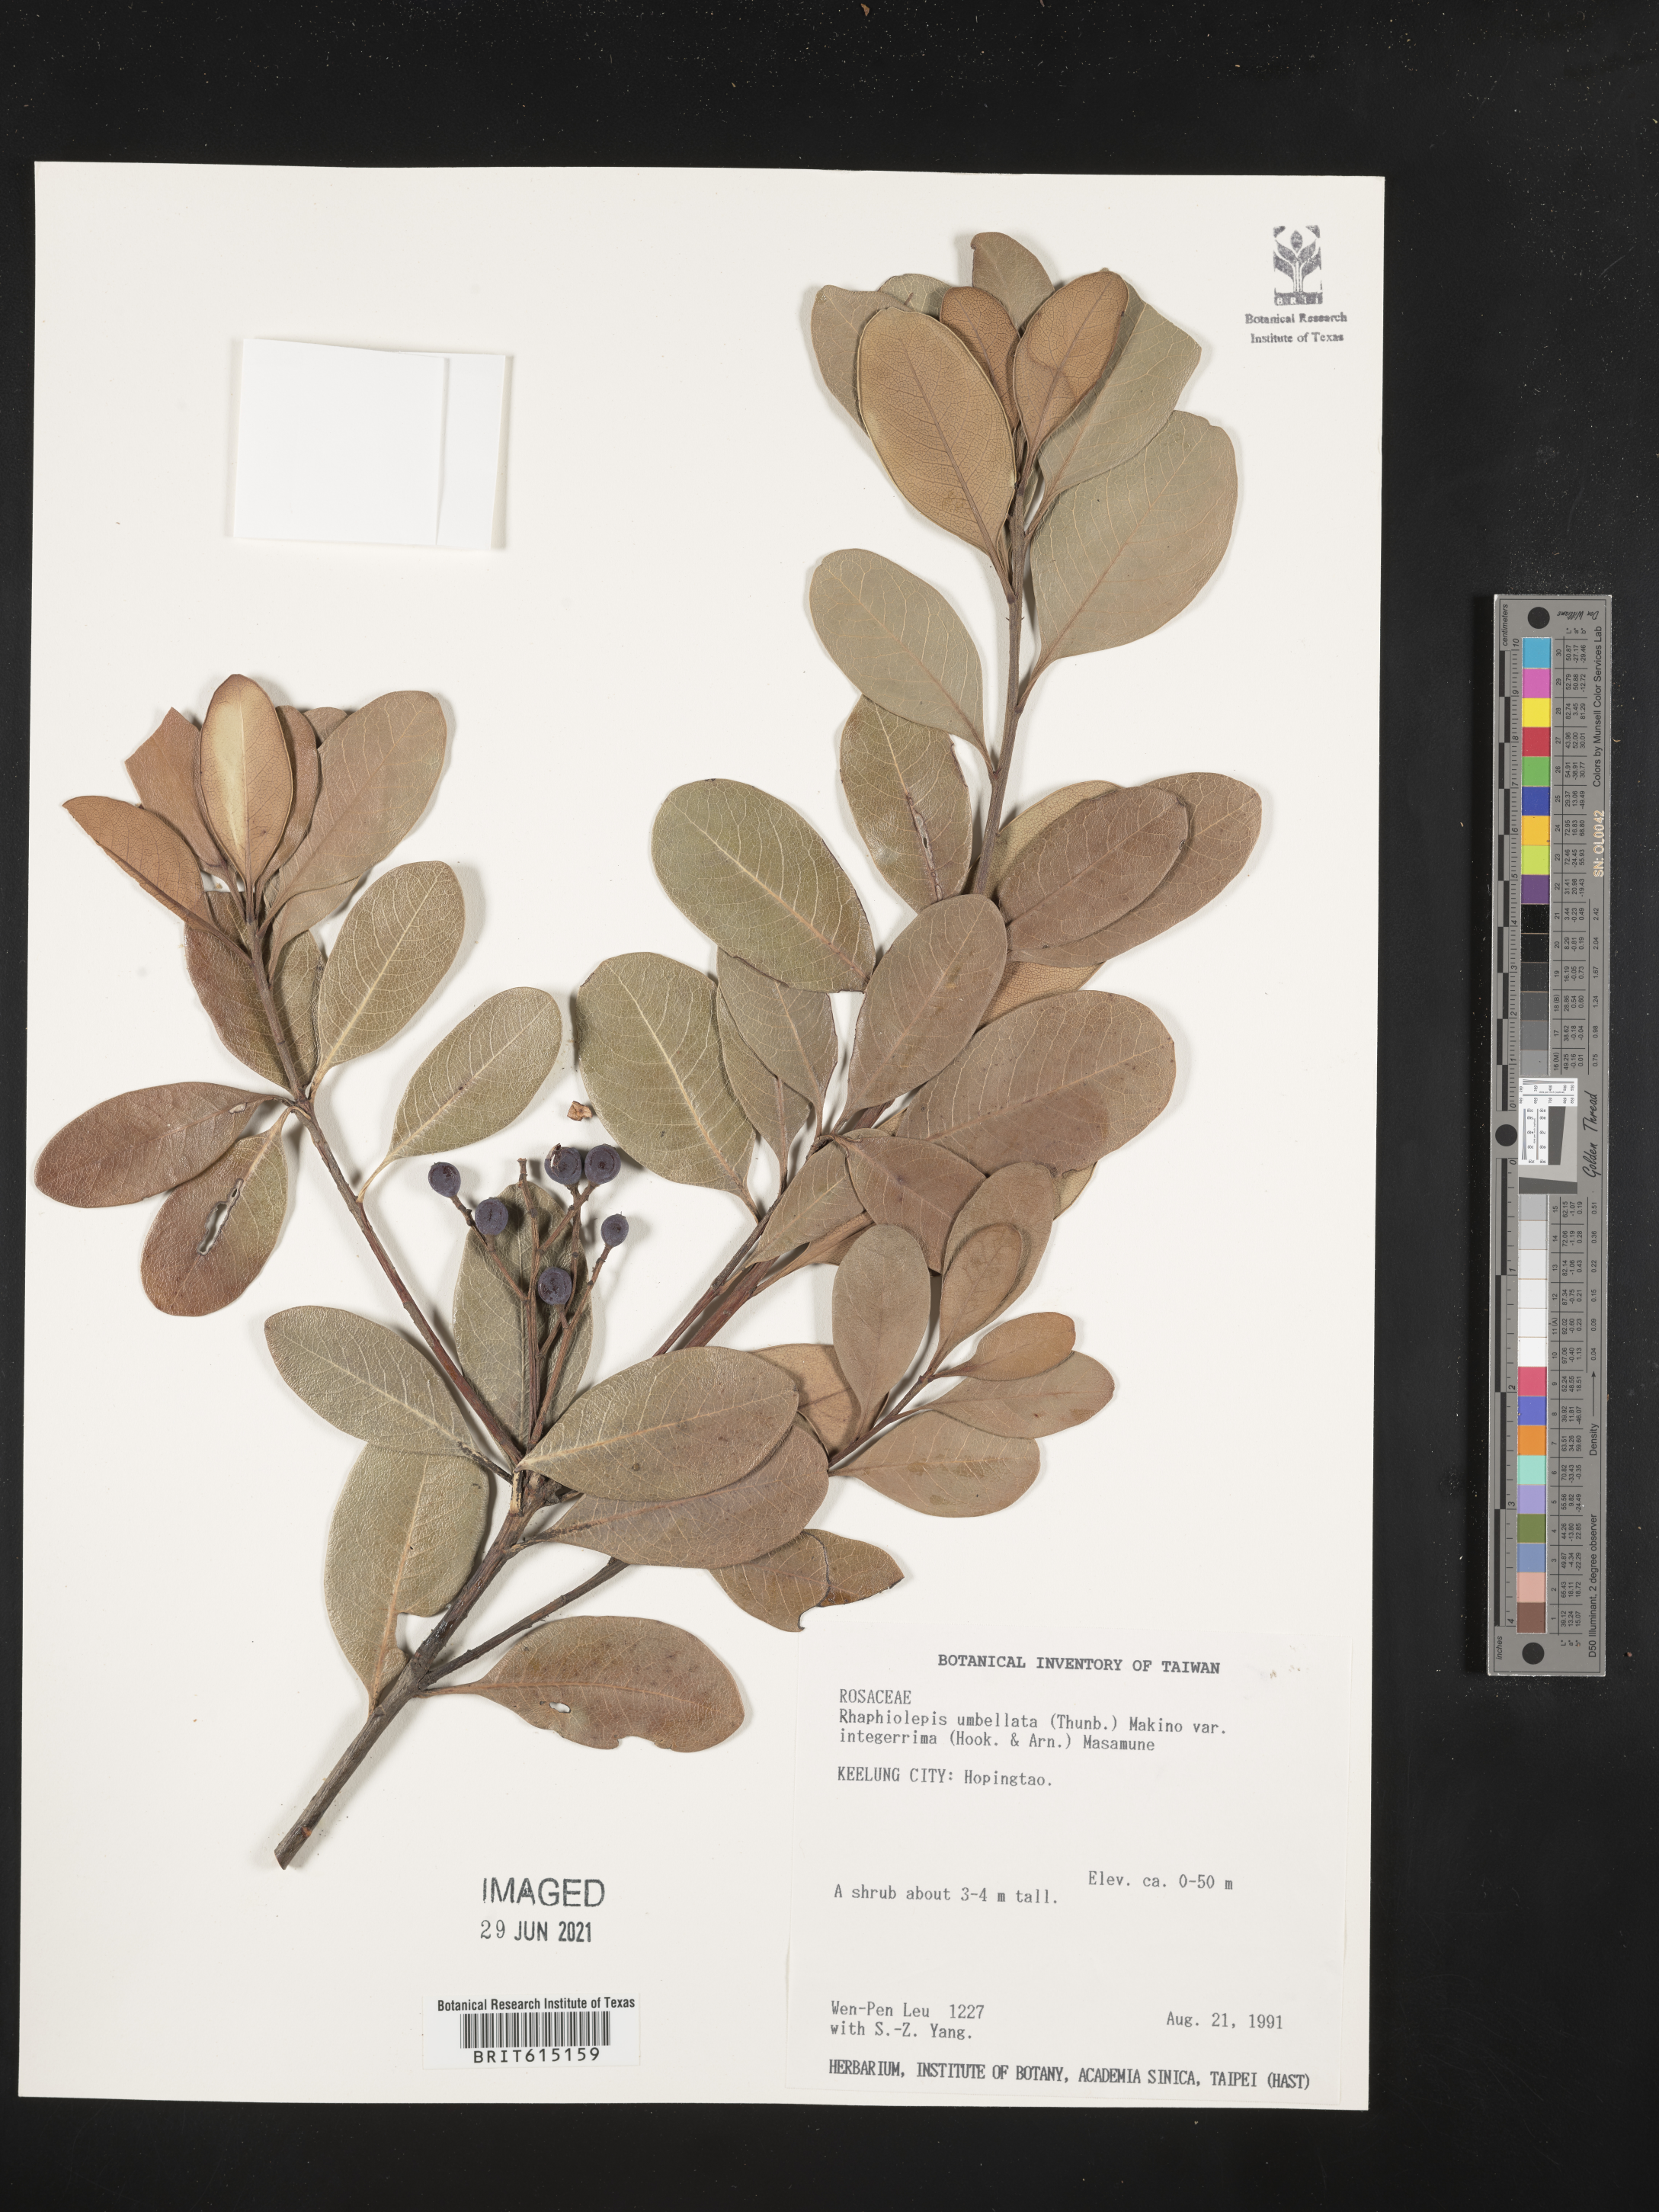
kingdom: Plantae
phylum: Tracheophyta
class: Magnoliopsida
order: Rosales
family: Rosaceae
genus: Rhaphiolepis
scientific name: Rhaphiolepis umbellata
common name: Yedda-hawthorn
